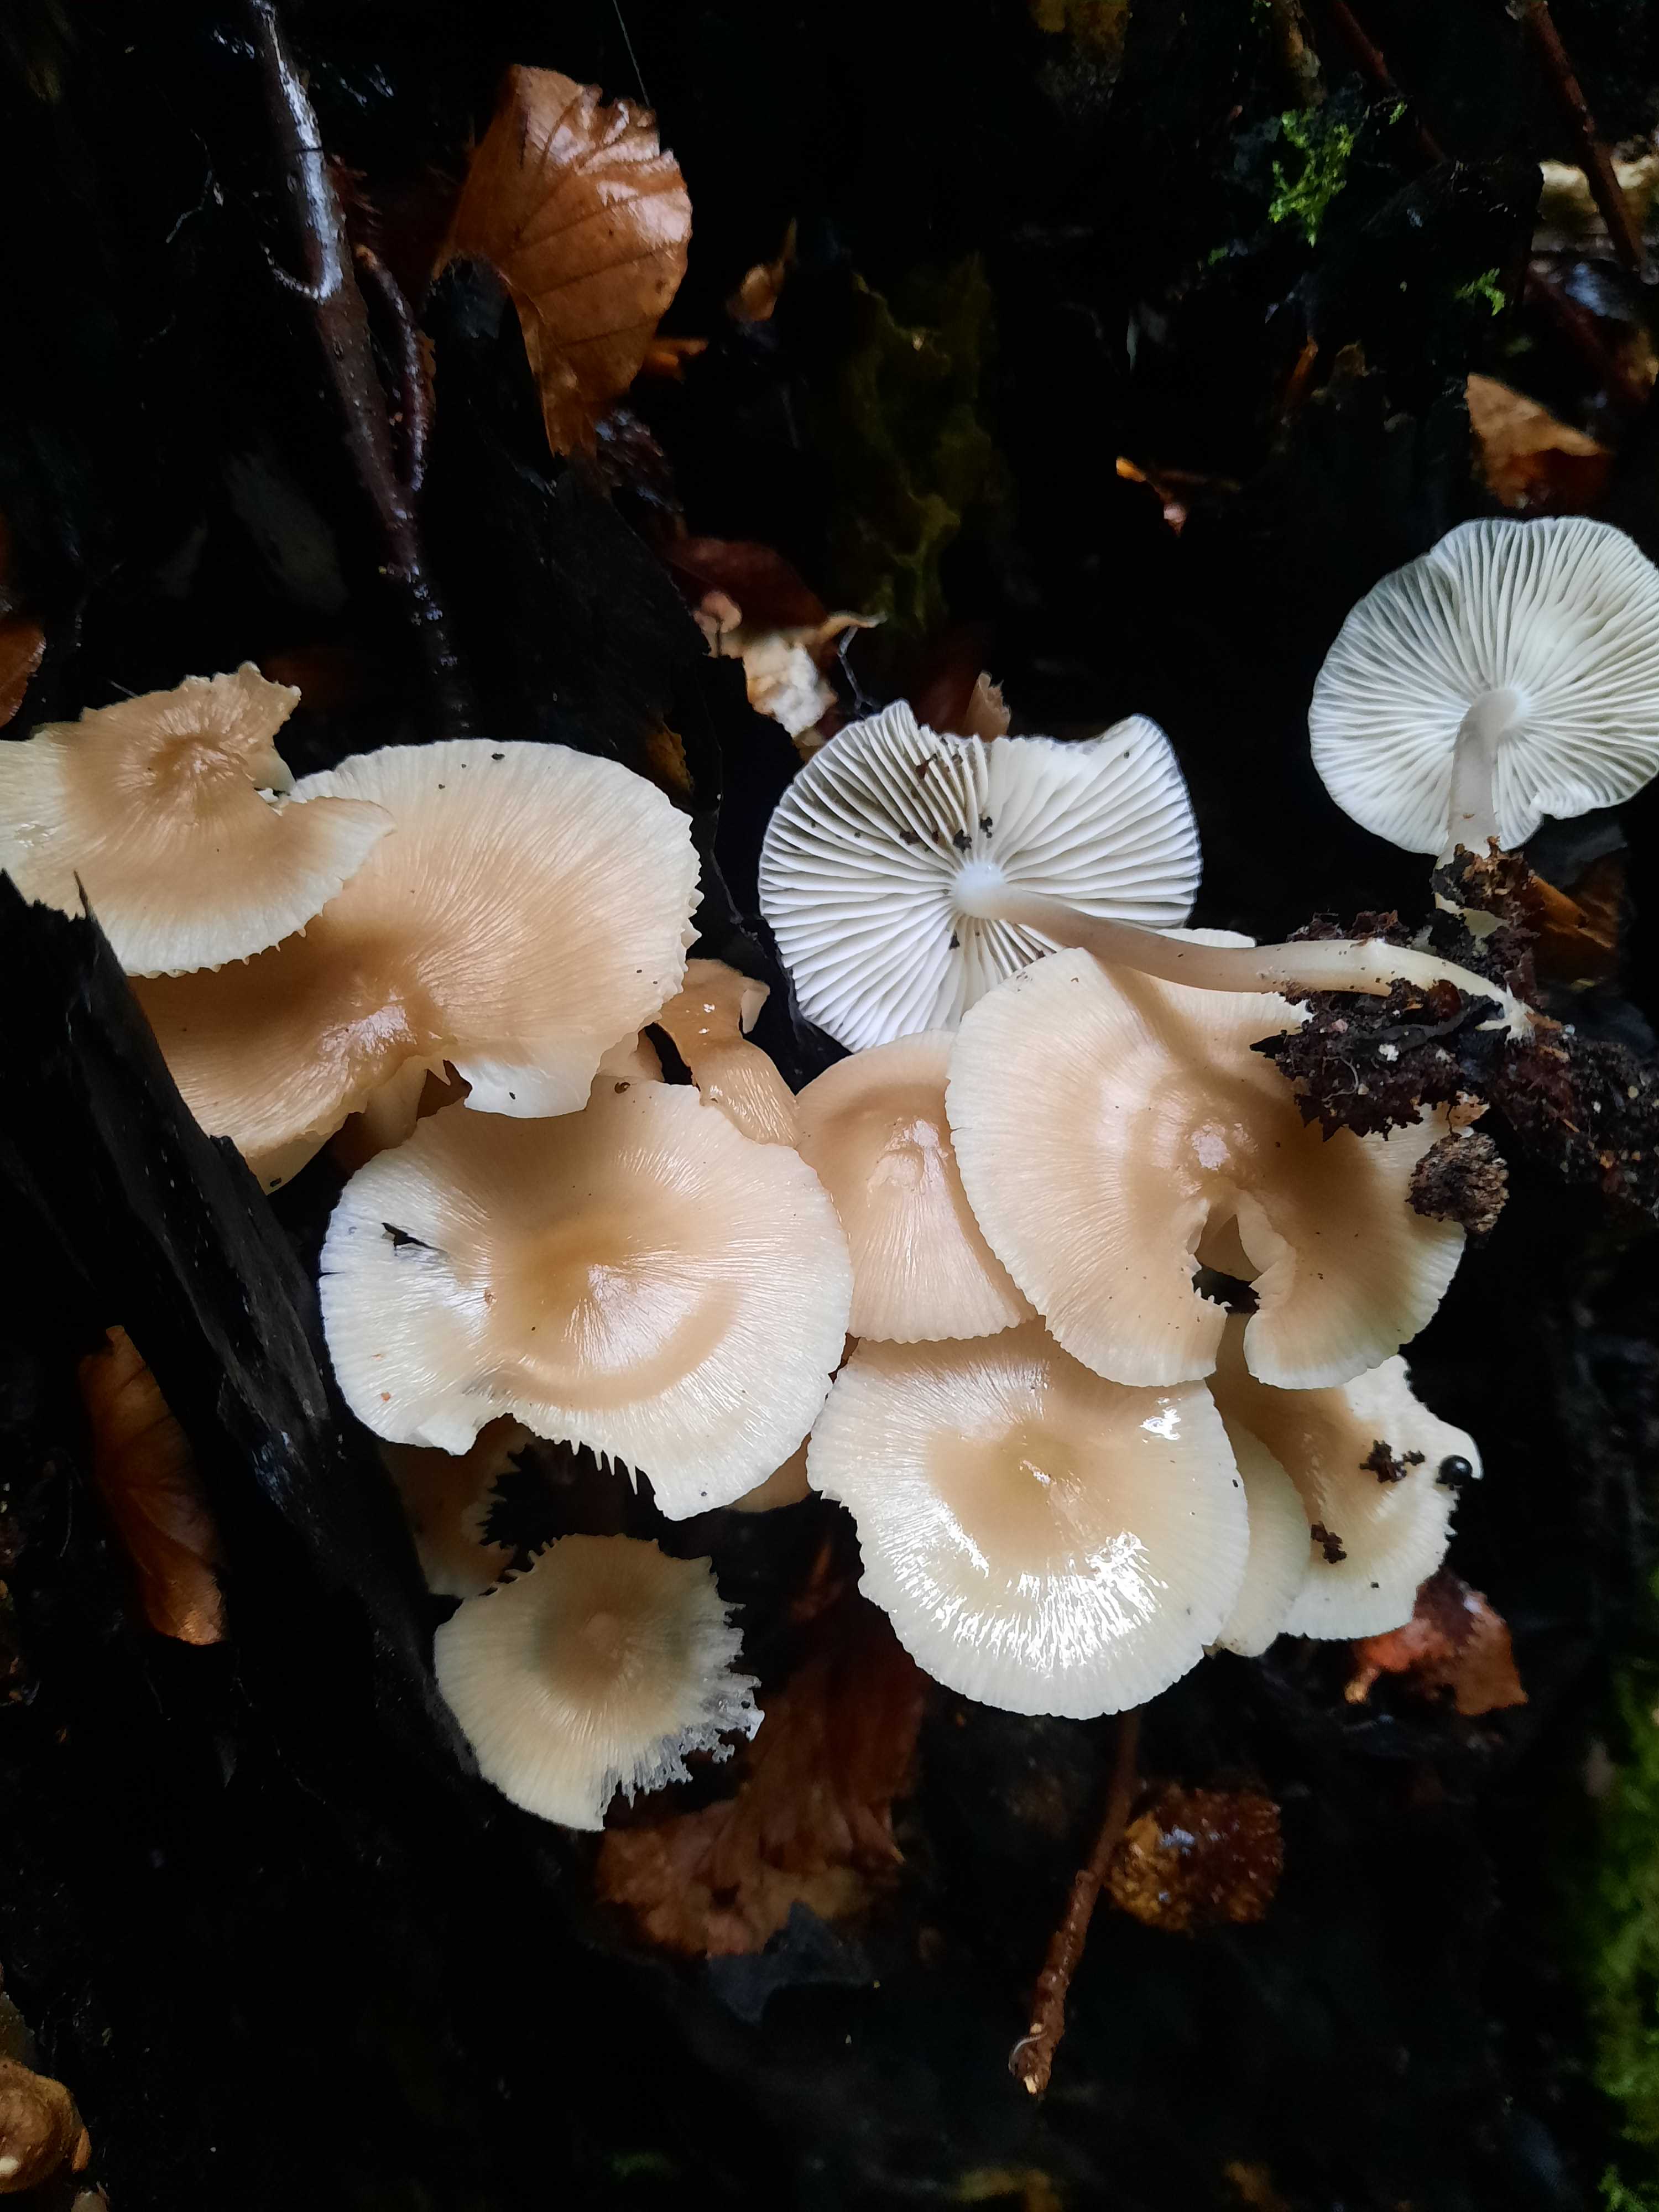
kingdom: Fungi
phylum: Basidiomycota
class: Agaricomycetes
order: Agaricales
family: Mycenaceae
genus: Mycena
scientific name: Mycena galericulata
